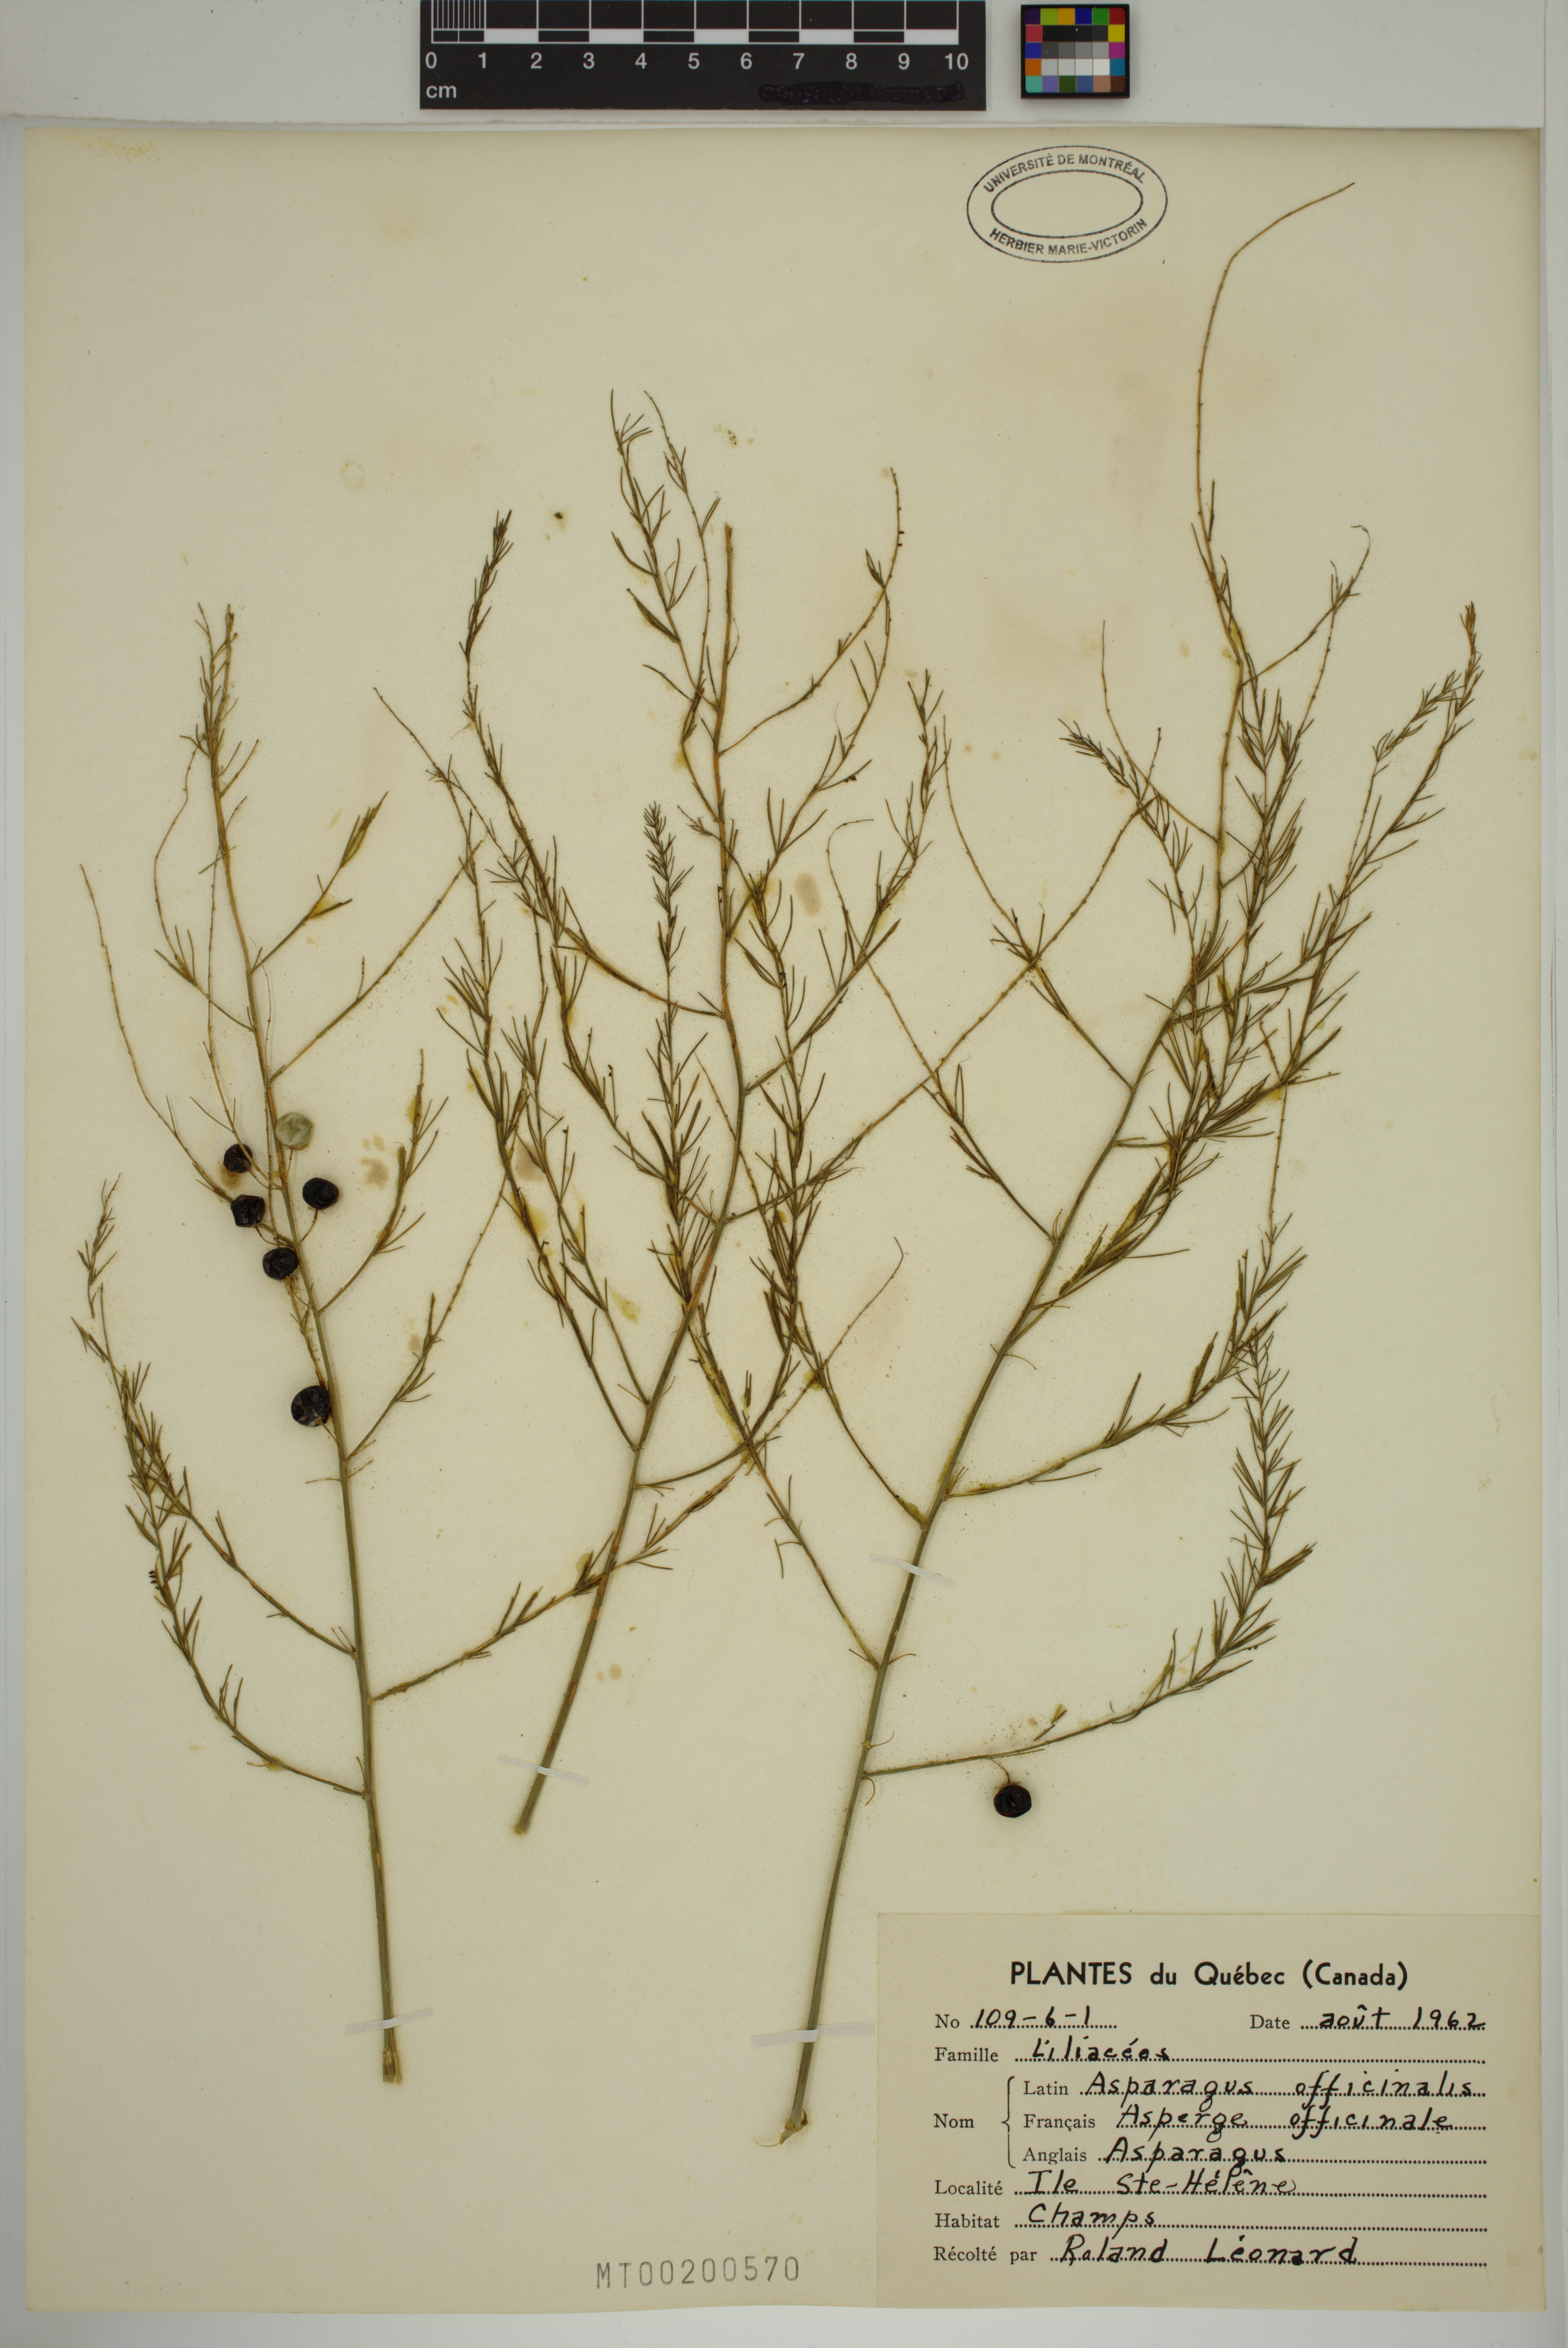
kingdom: Plantae
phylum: Tracheophyta
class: Liliopsida
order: Asparagales
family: Asparagaceae
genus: Asparagus
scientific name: Asparagus officinalis
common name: Garden asparagus
